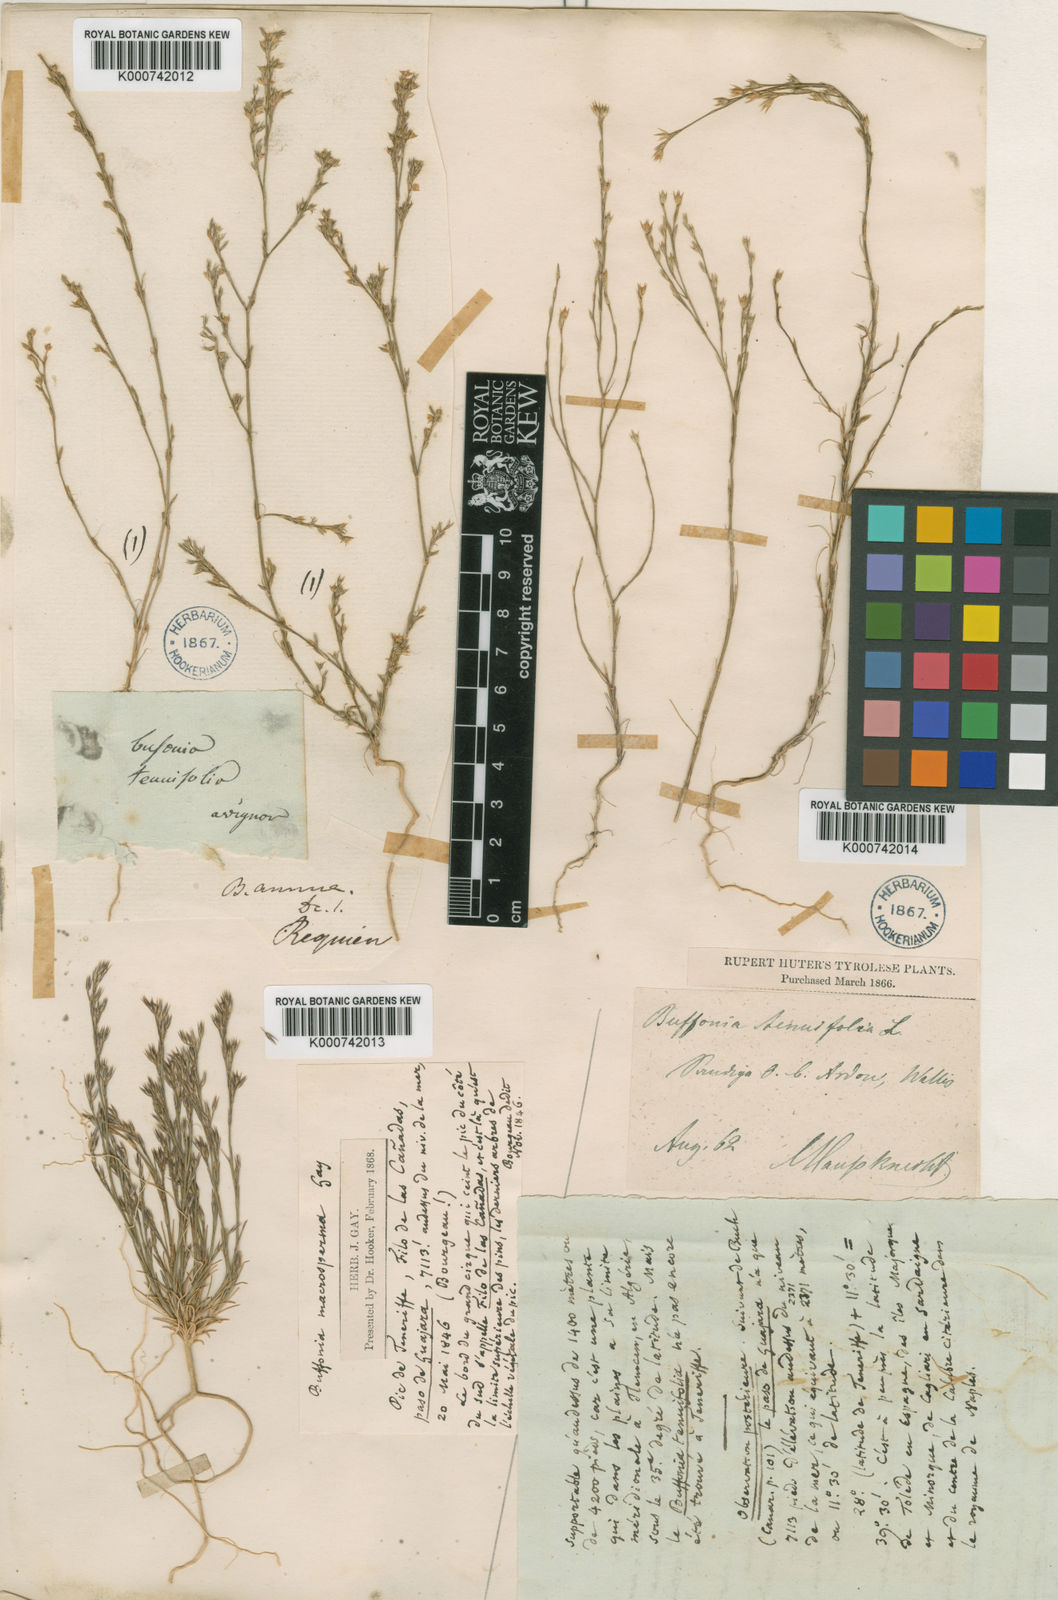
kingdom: Plantae
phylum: Tracheophyta
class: Magnoliopsida
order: Caryophyllales
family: Caryophyllaceae
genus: Bufonia
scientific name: Bufonia tenuifolia
